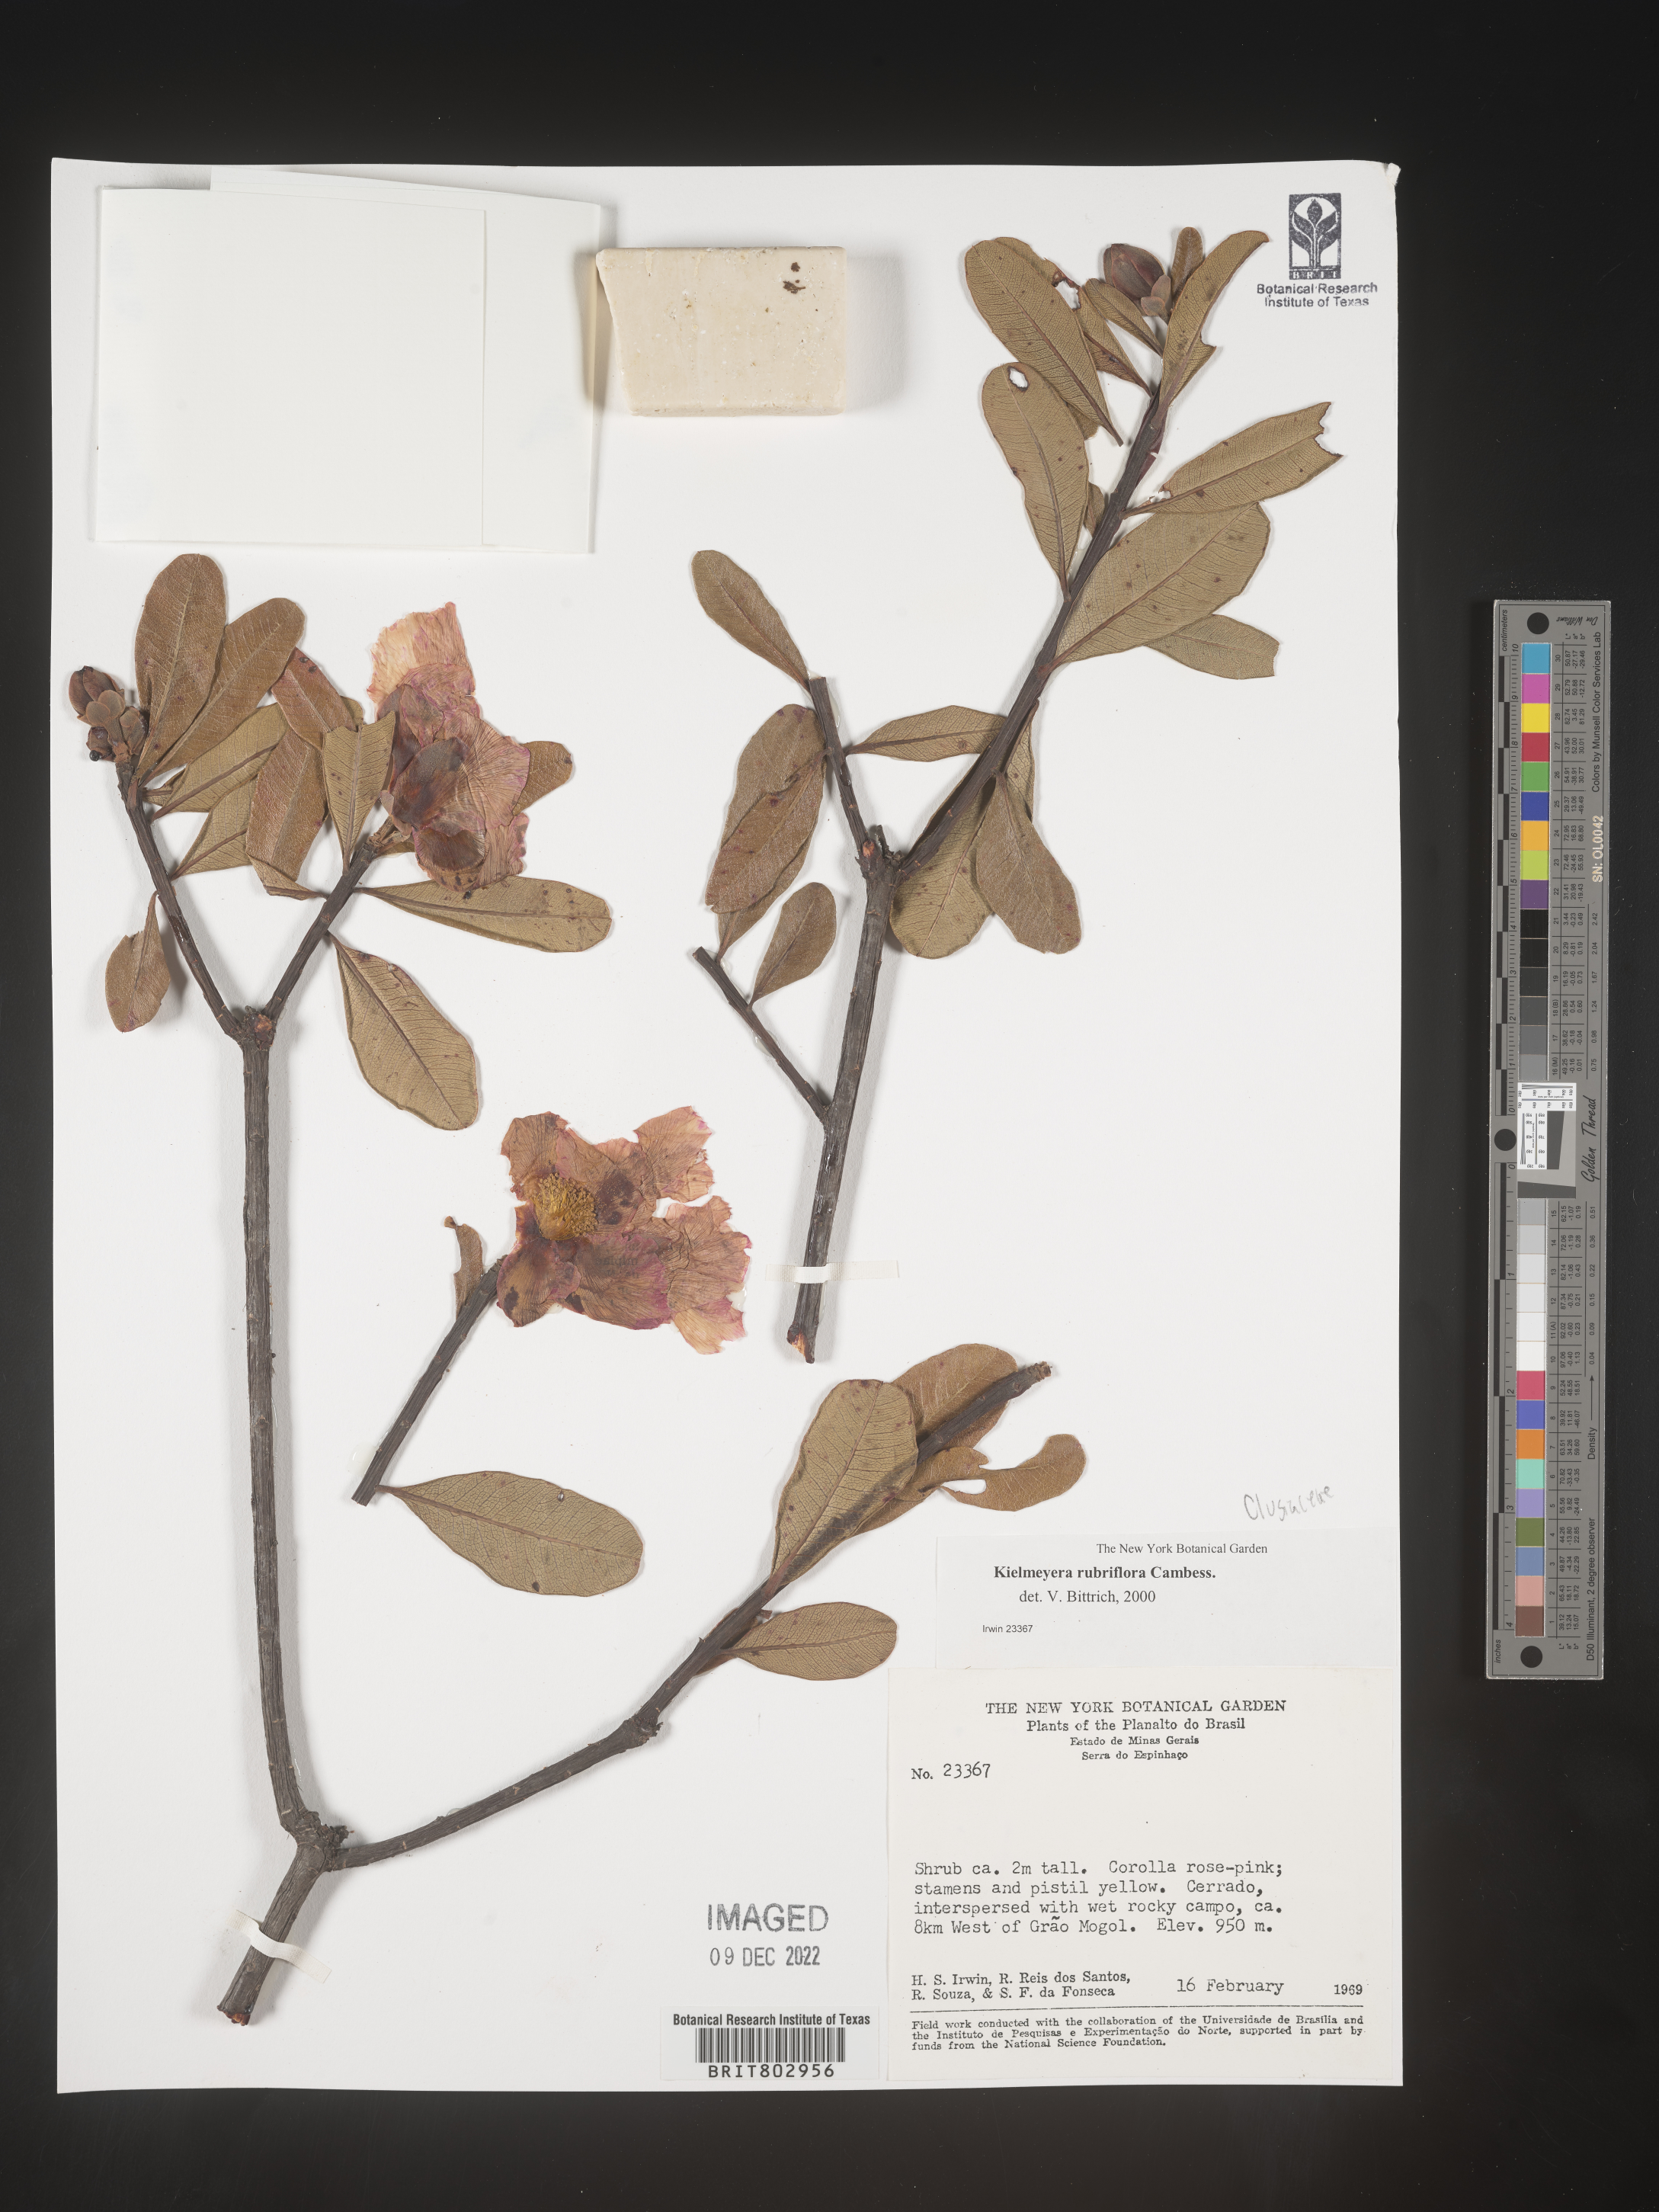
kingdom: Plantae
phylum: Tracheophyta
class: Magnoliopsida
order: Malpighiales
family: Calophyllaceae
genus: Kielmeyera
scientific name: Kielmeyera
